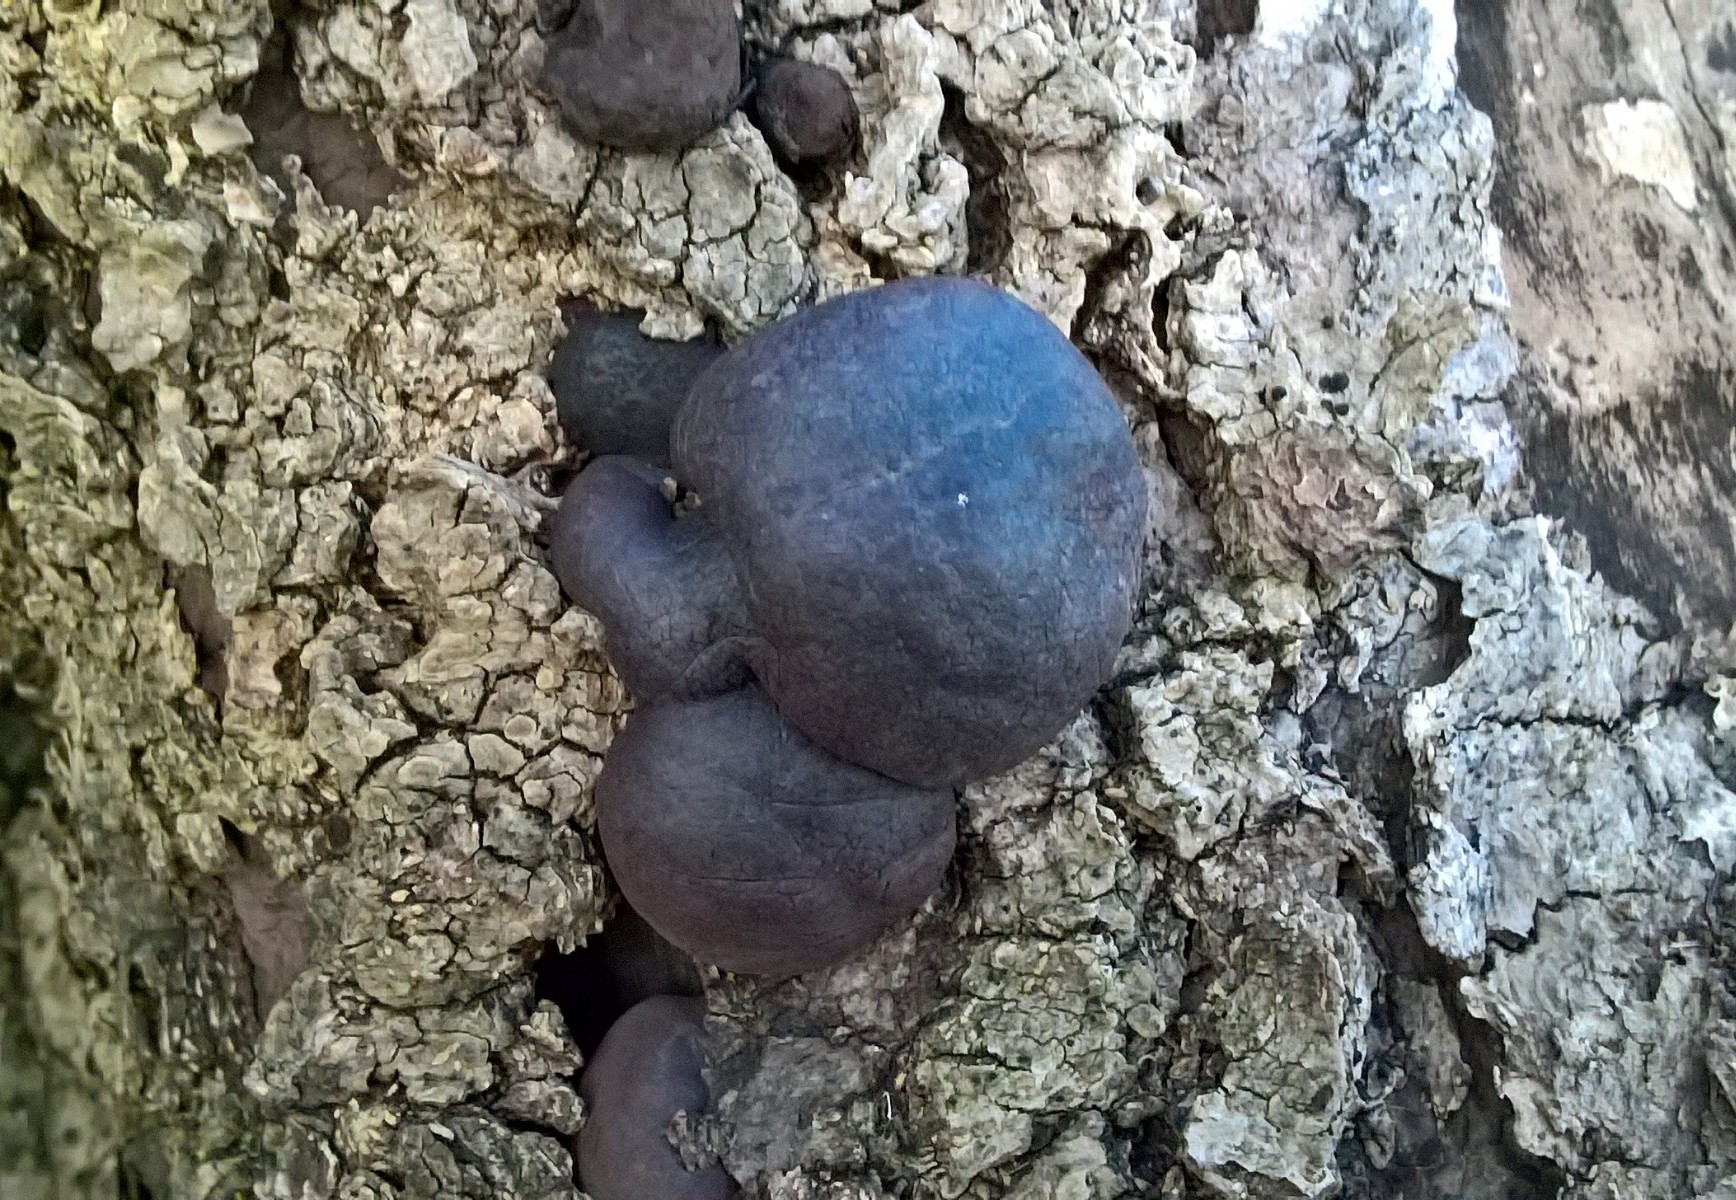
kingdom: Fungi
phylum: Ascomycota
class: Sordariomycetes
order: Xylariales
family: Hypoxylaceae
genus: Daldinia
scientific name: Daldinia concentrica
